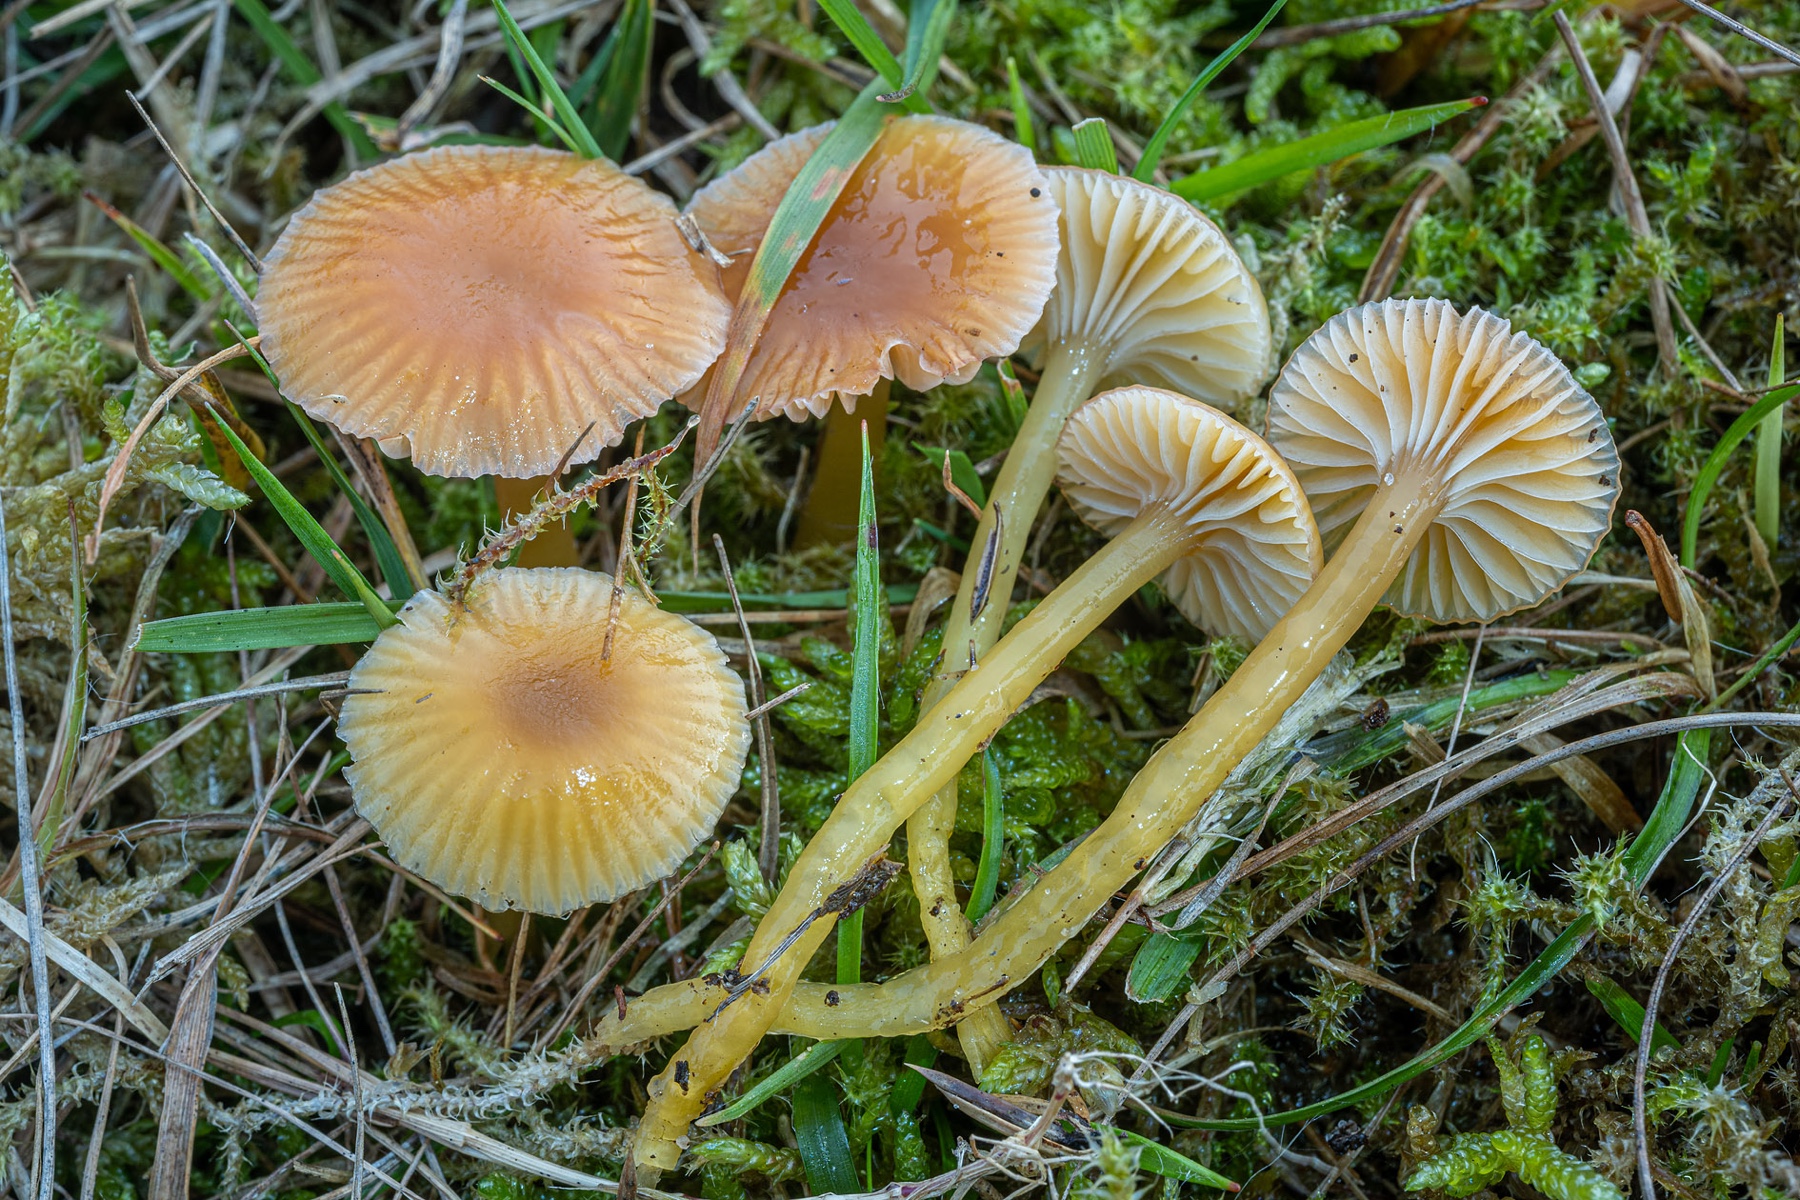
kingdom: Fungi
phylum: Basidiomycota
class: Agaricomycetes
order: Agaricales
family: Hygrophoraceae
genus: Gliophorus
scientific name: Gliophorus laetus
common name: brusk-vokshat
